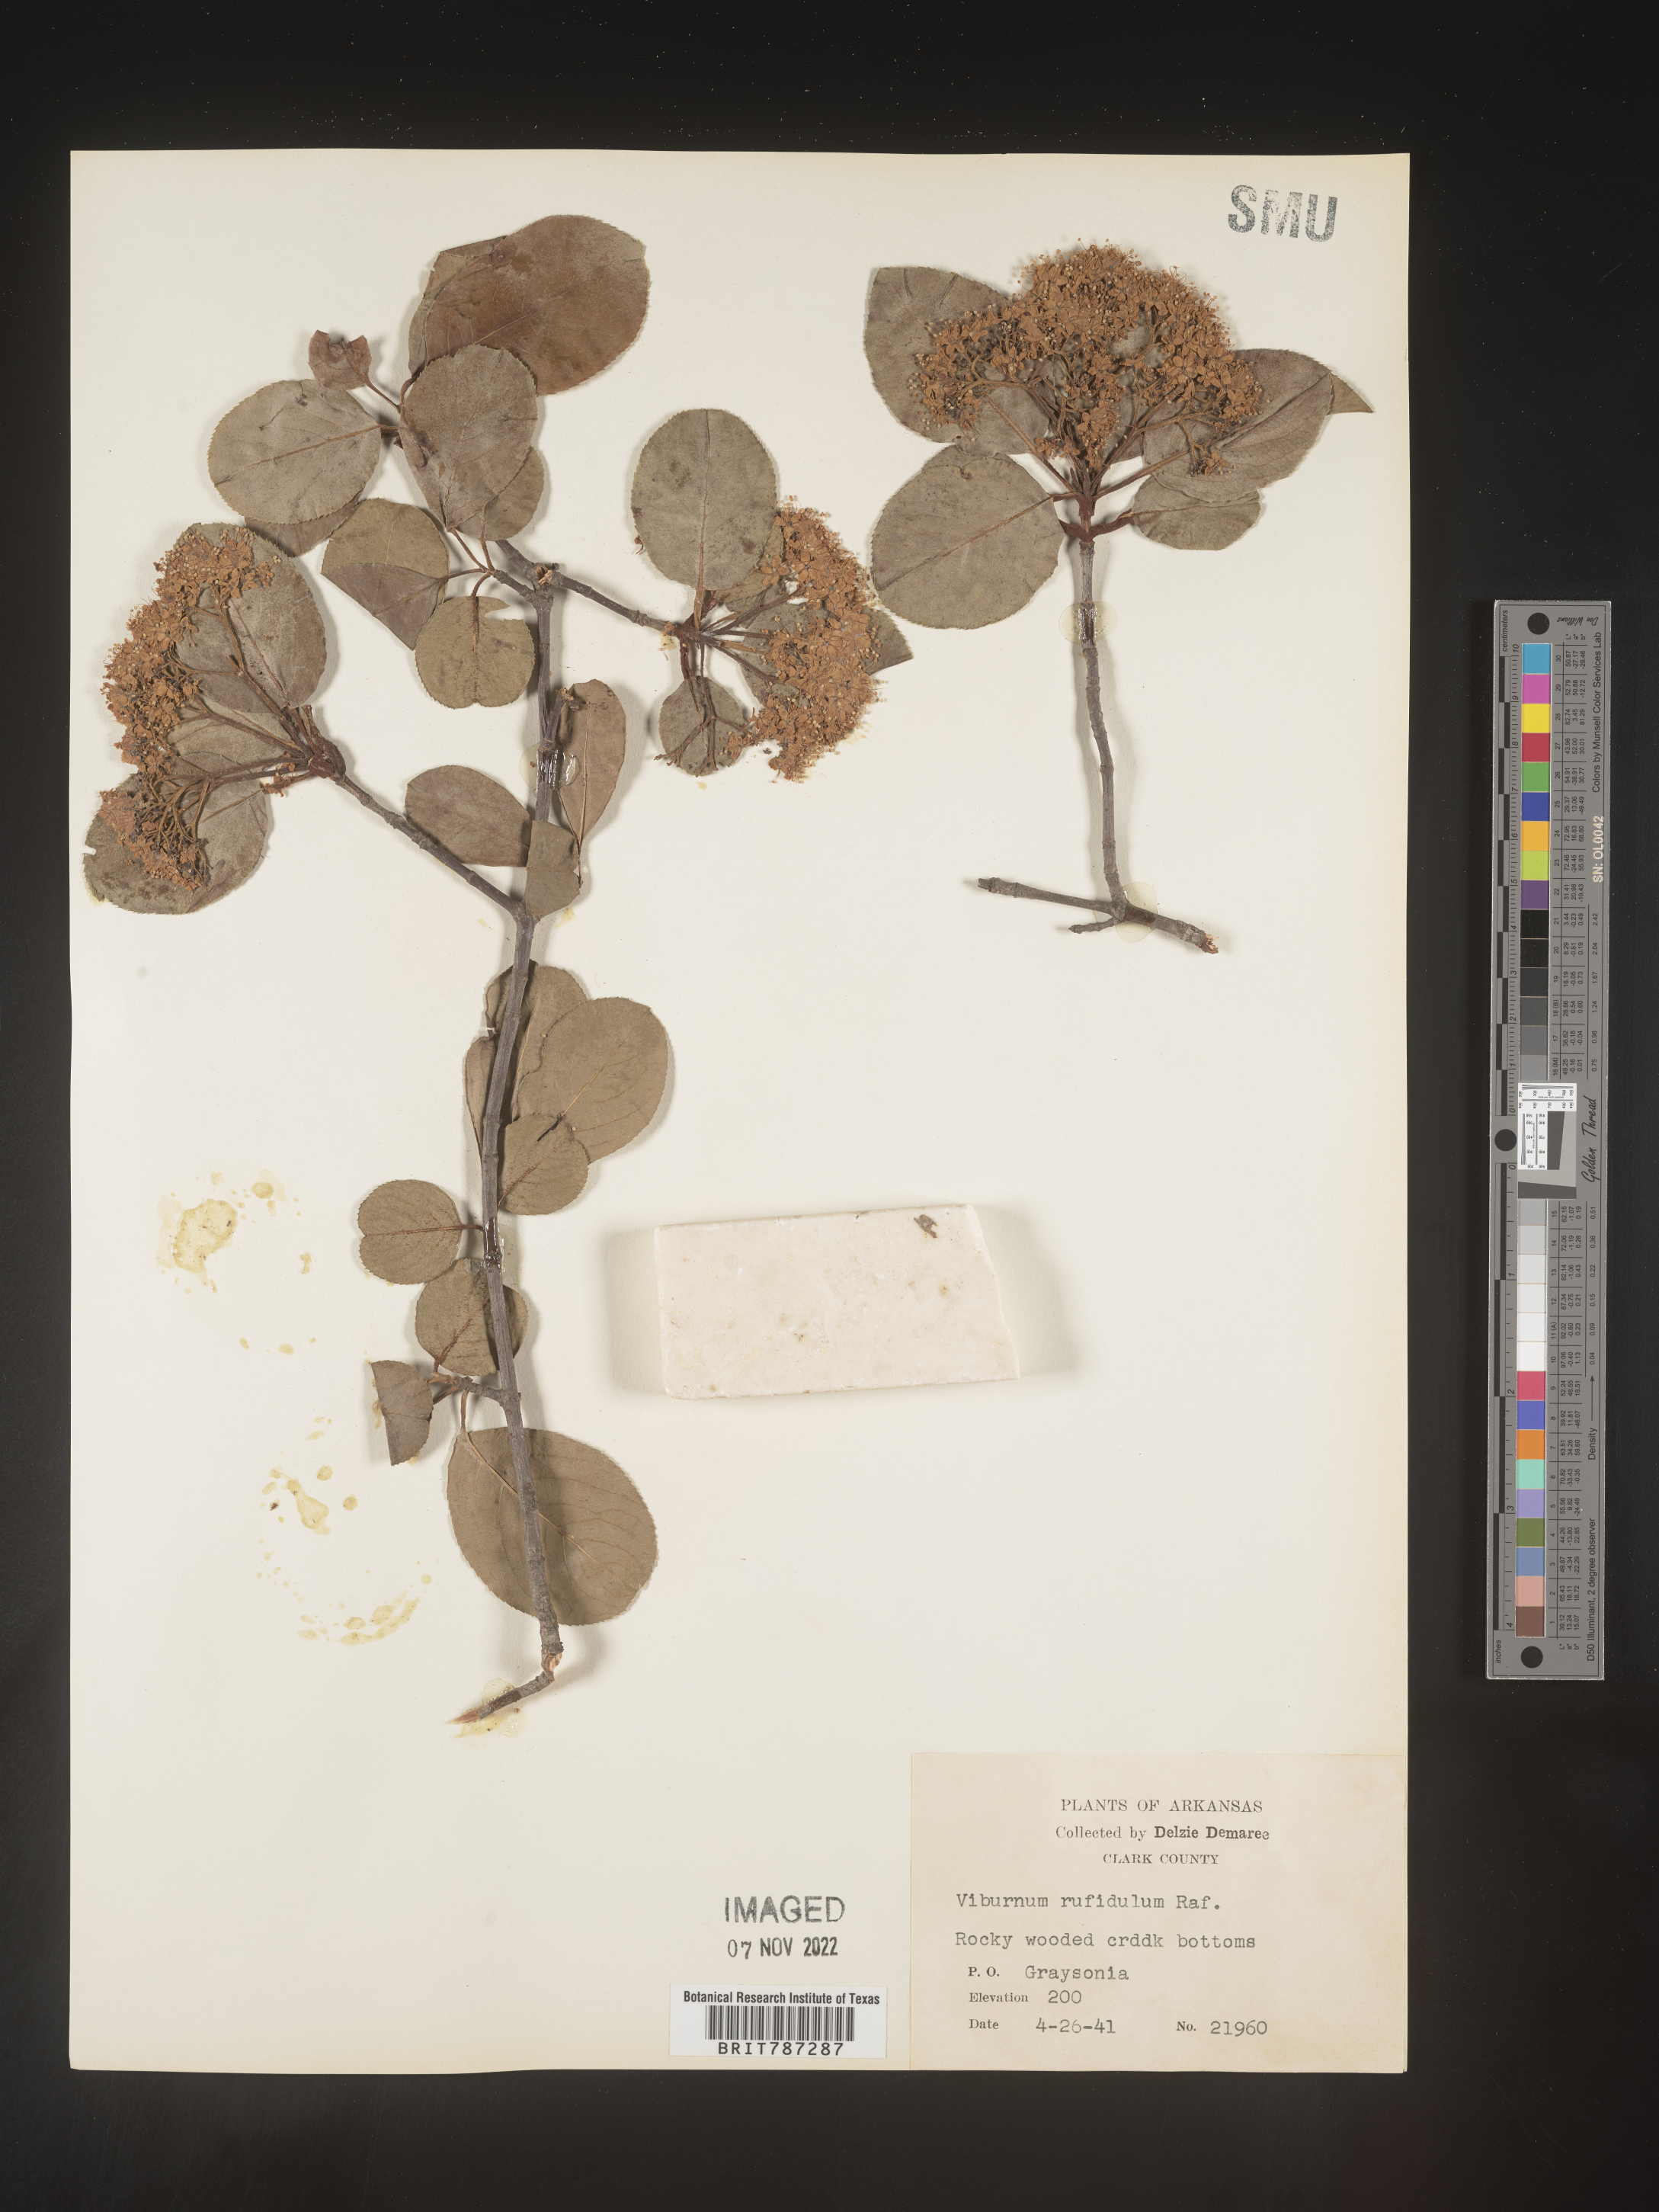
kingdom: Plantae
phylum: Tracheophyta
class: Magnoliopsida
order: Dipsacales
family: Viburnaceae
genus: Viburnum
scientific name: Viburnum rufidulum
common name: Blue haw
